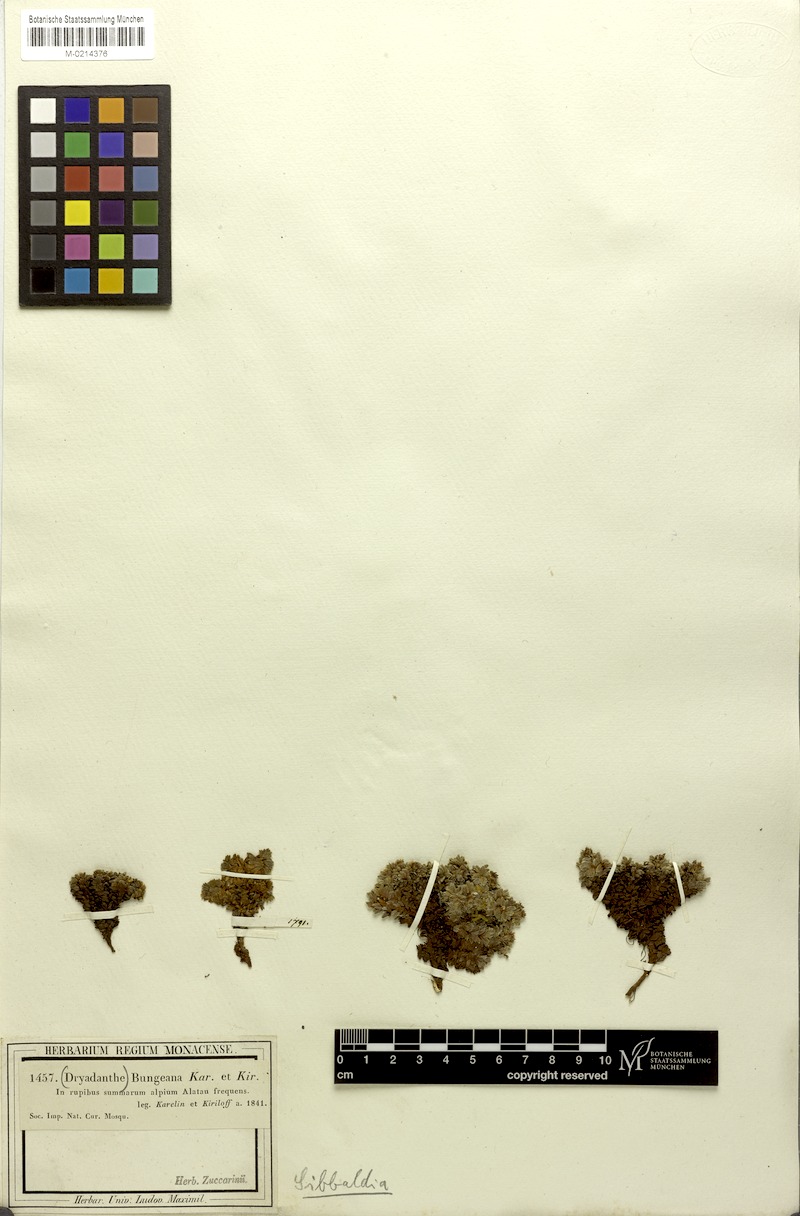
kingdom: Plantae
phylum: Tracheophyta
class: Magnoliopsida
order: Rosales
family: Rosaceae
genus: Potentilla
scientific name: Potentilla tetrandra
